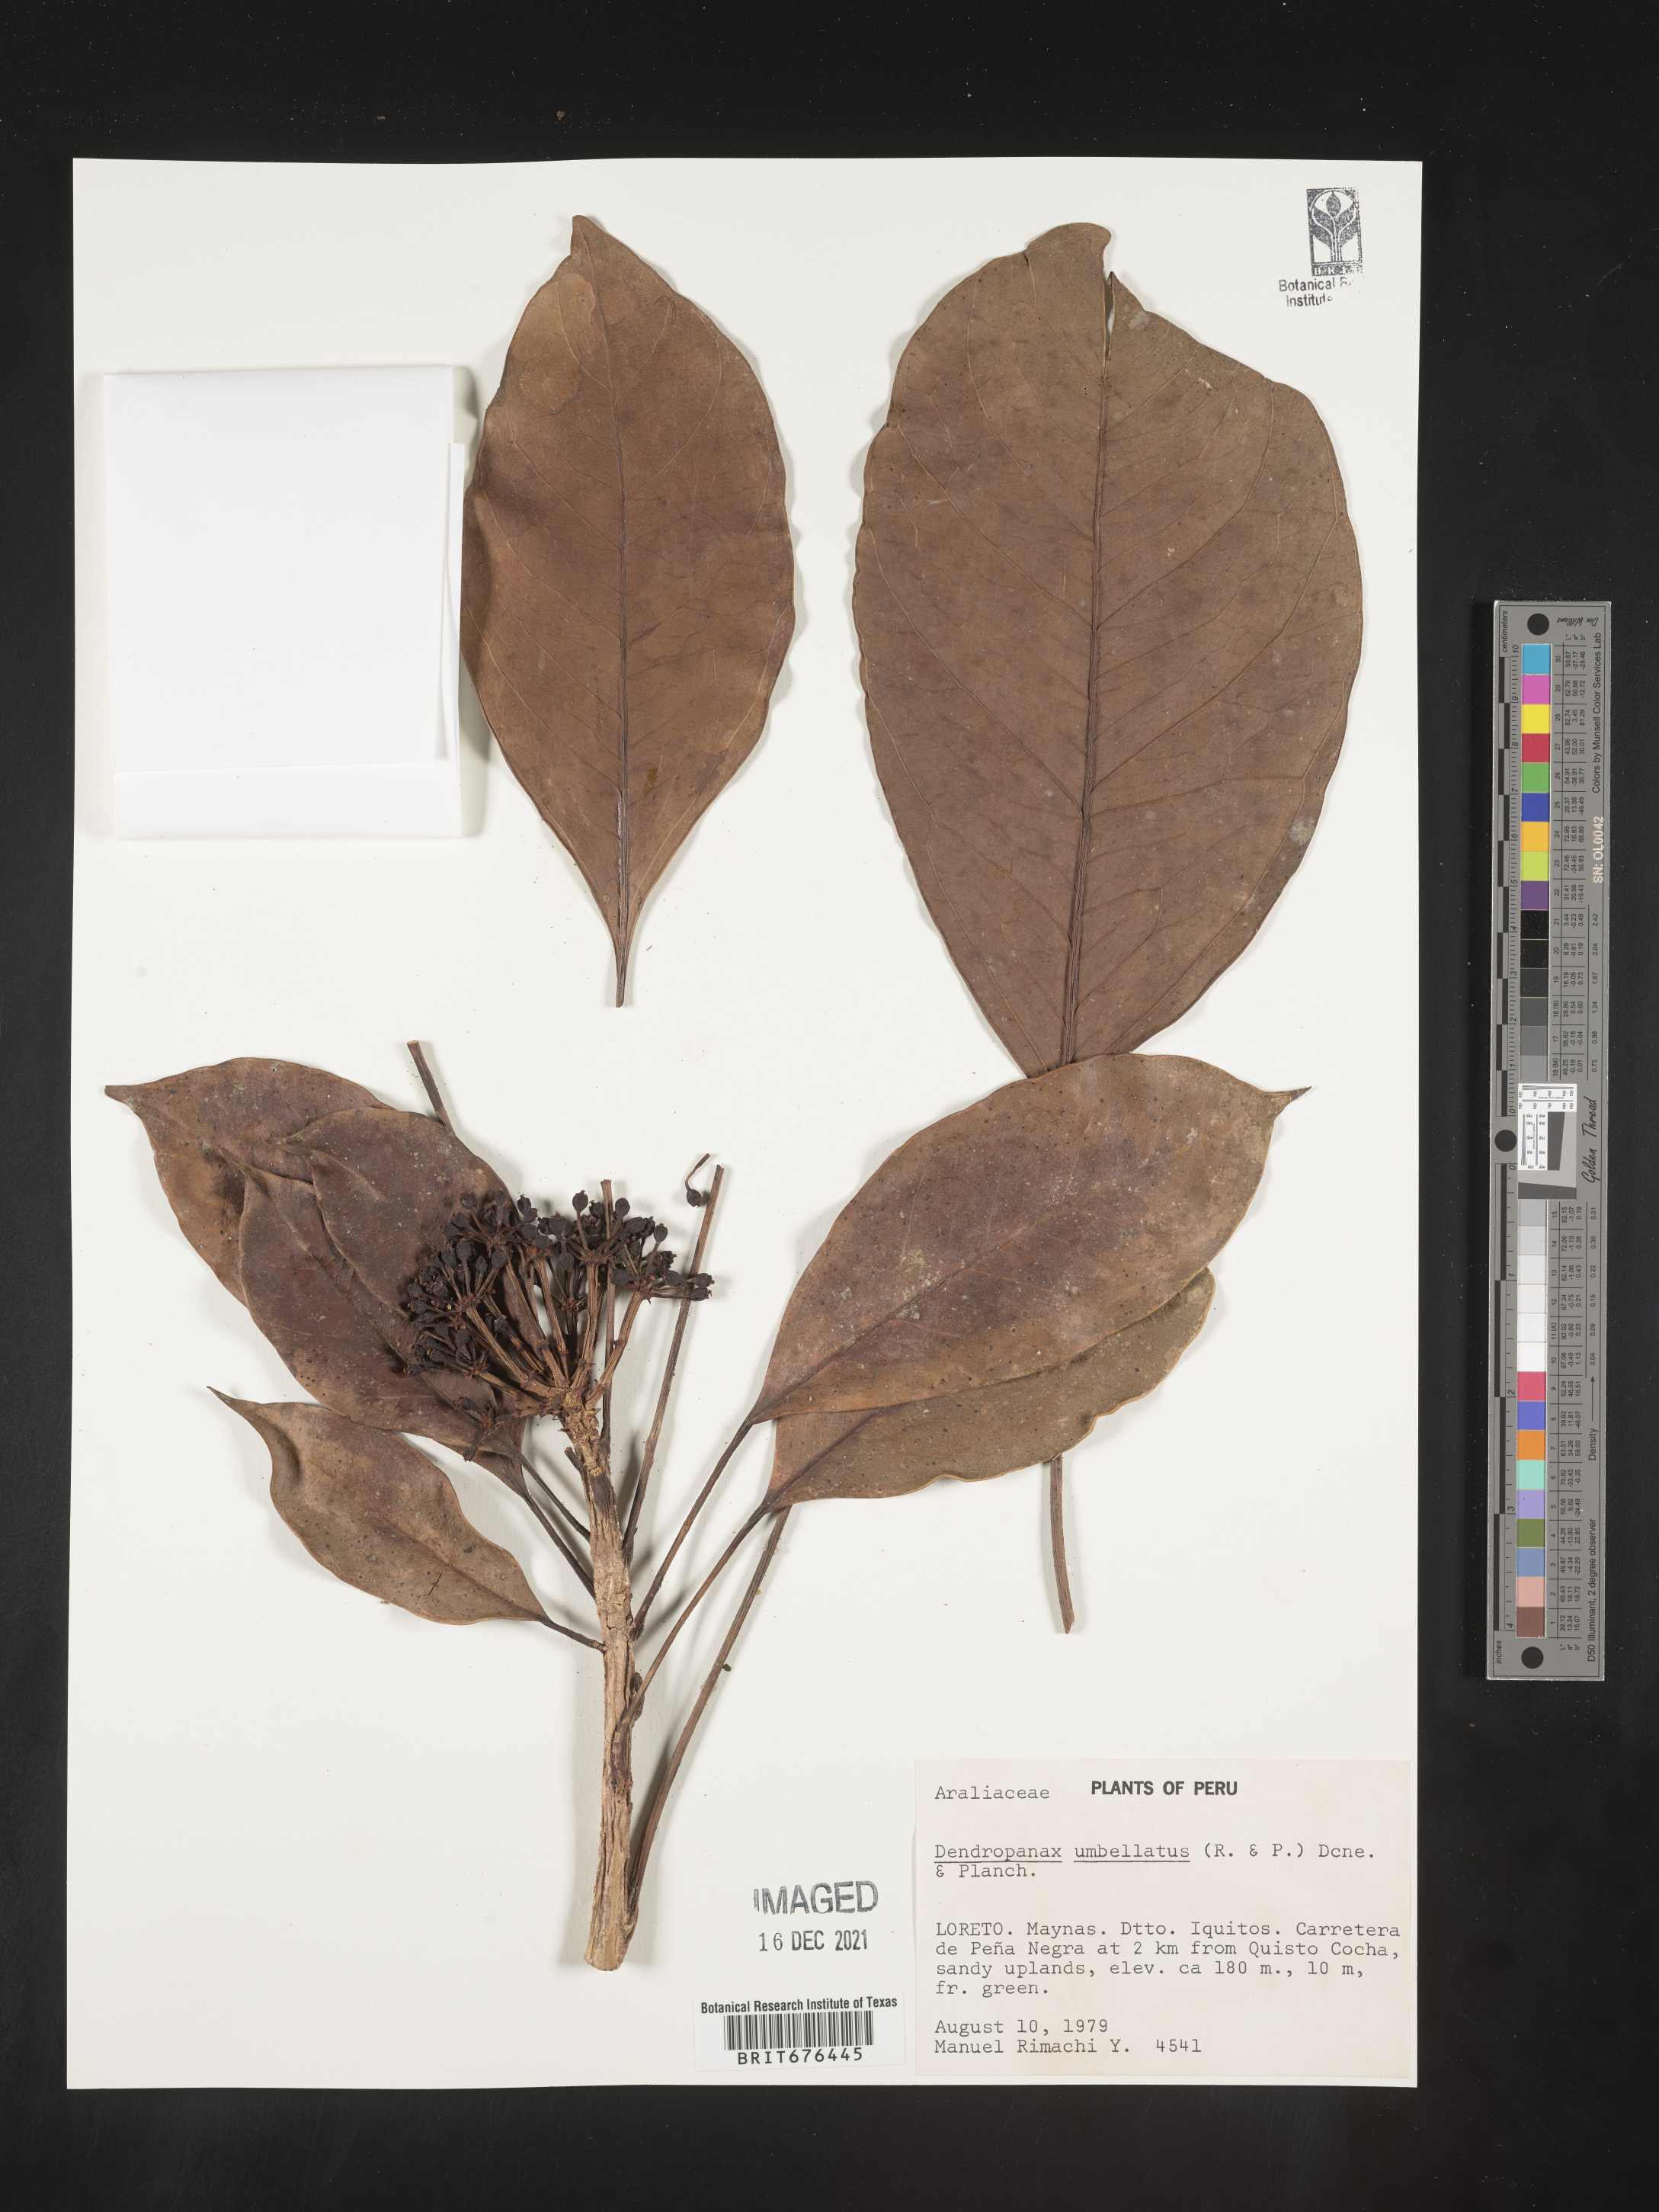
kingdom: Plantae
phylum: Tracheophyta
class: Magnoliopsida
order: Apiales
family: Araliaceae
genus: Dendropanax
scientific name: Dendropanax
